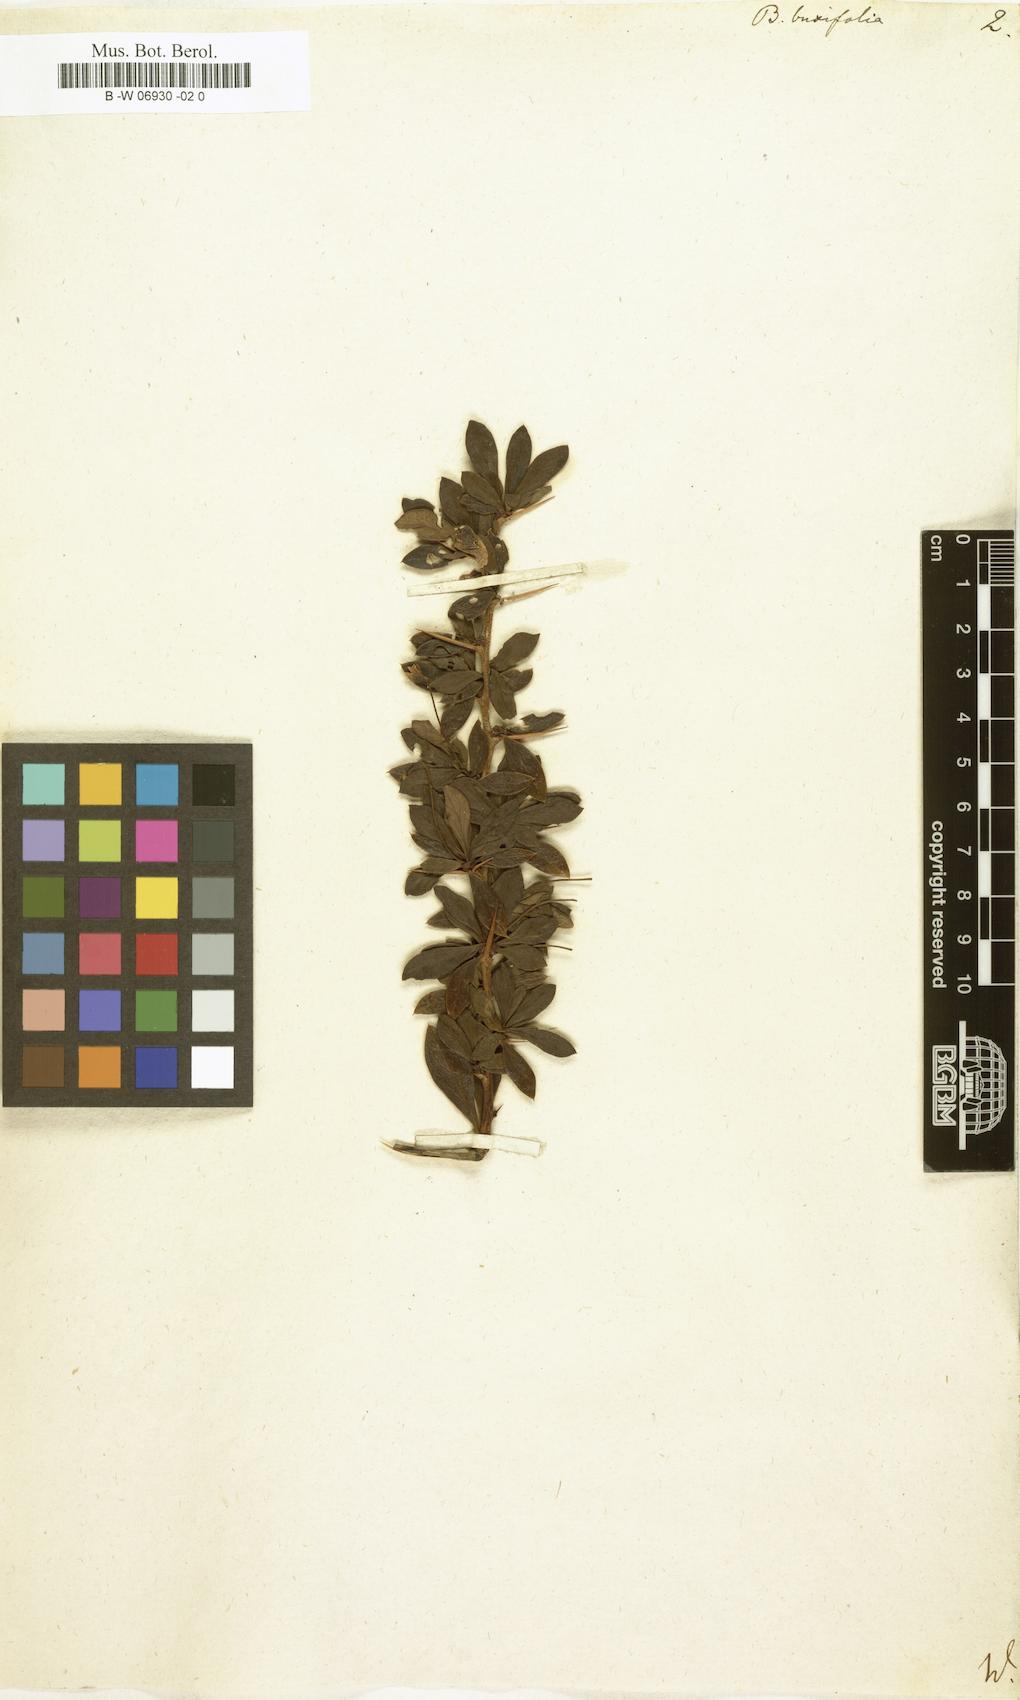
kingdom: Plantae
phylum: Tracheophyta
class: Magnoliopsida
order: Ranunculales
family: Berberidaceae
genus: Berberis
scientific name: Berberis microphylla
